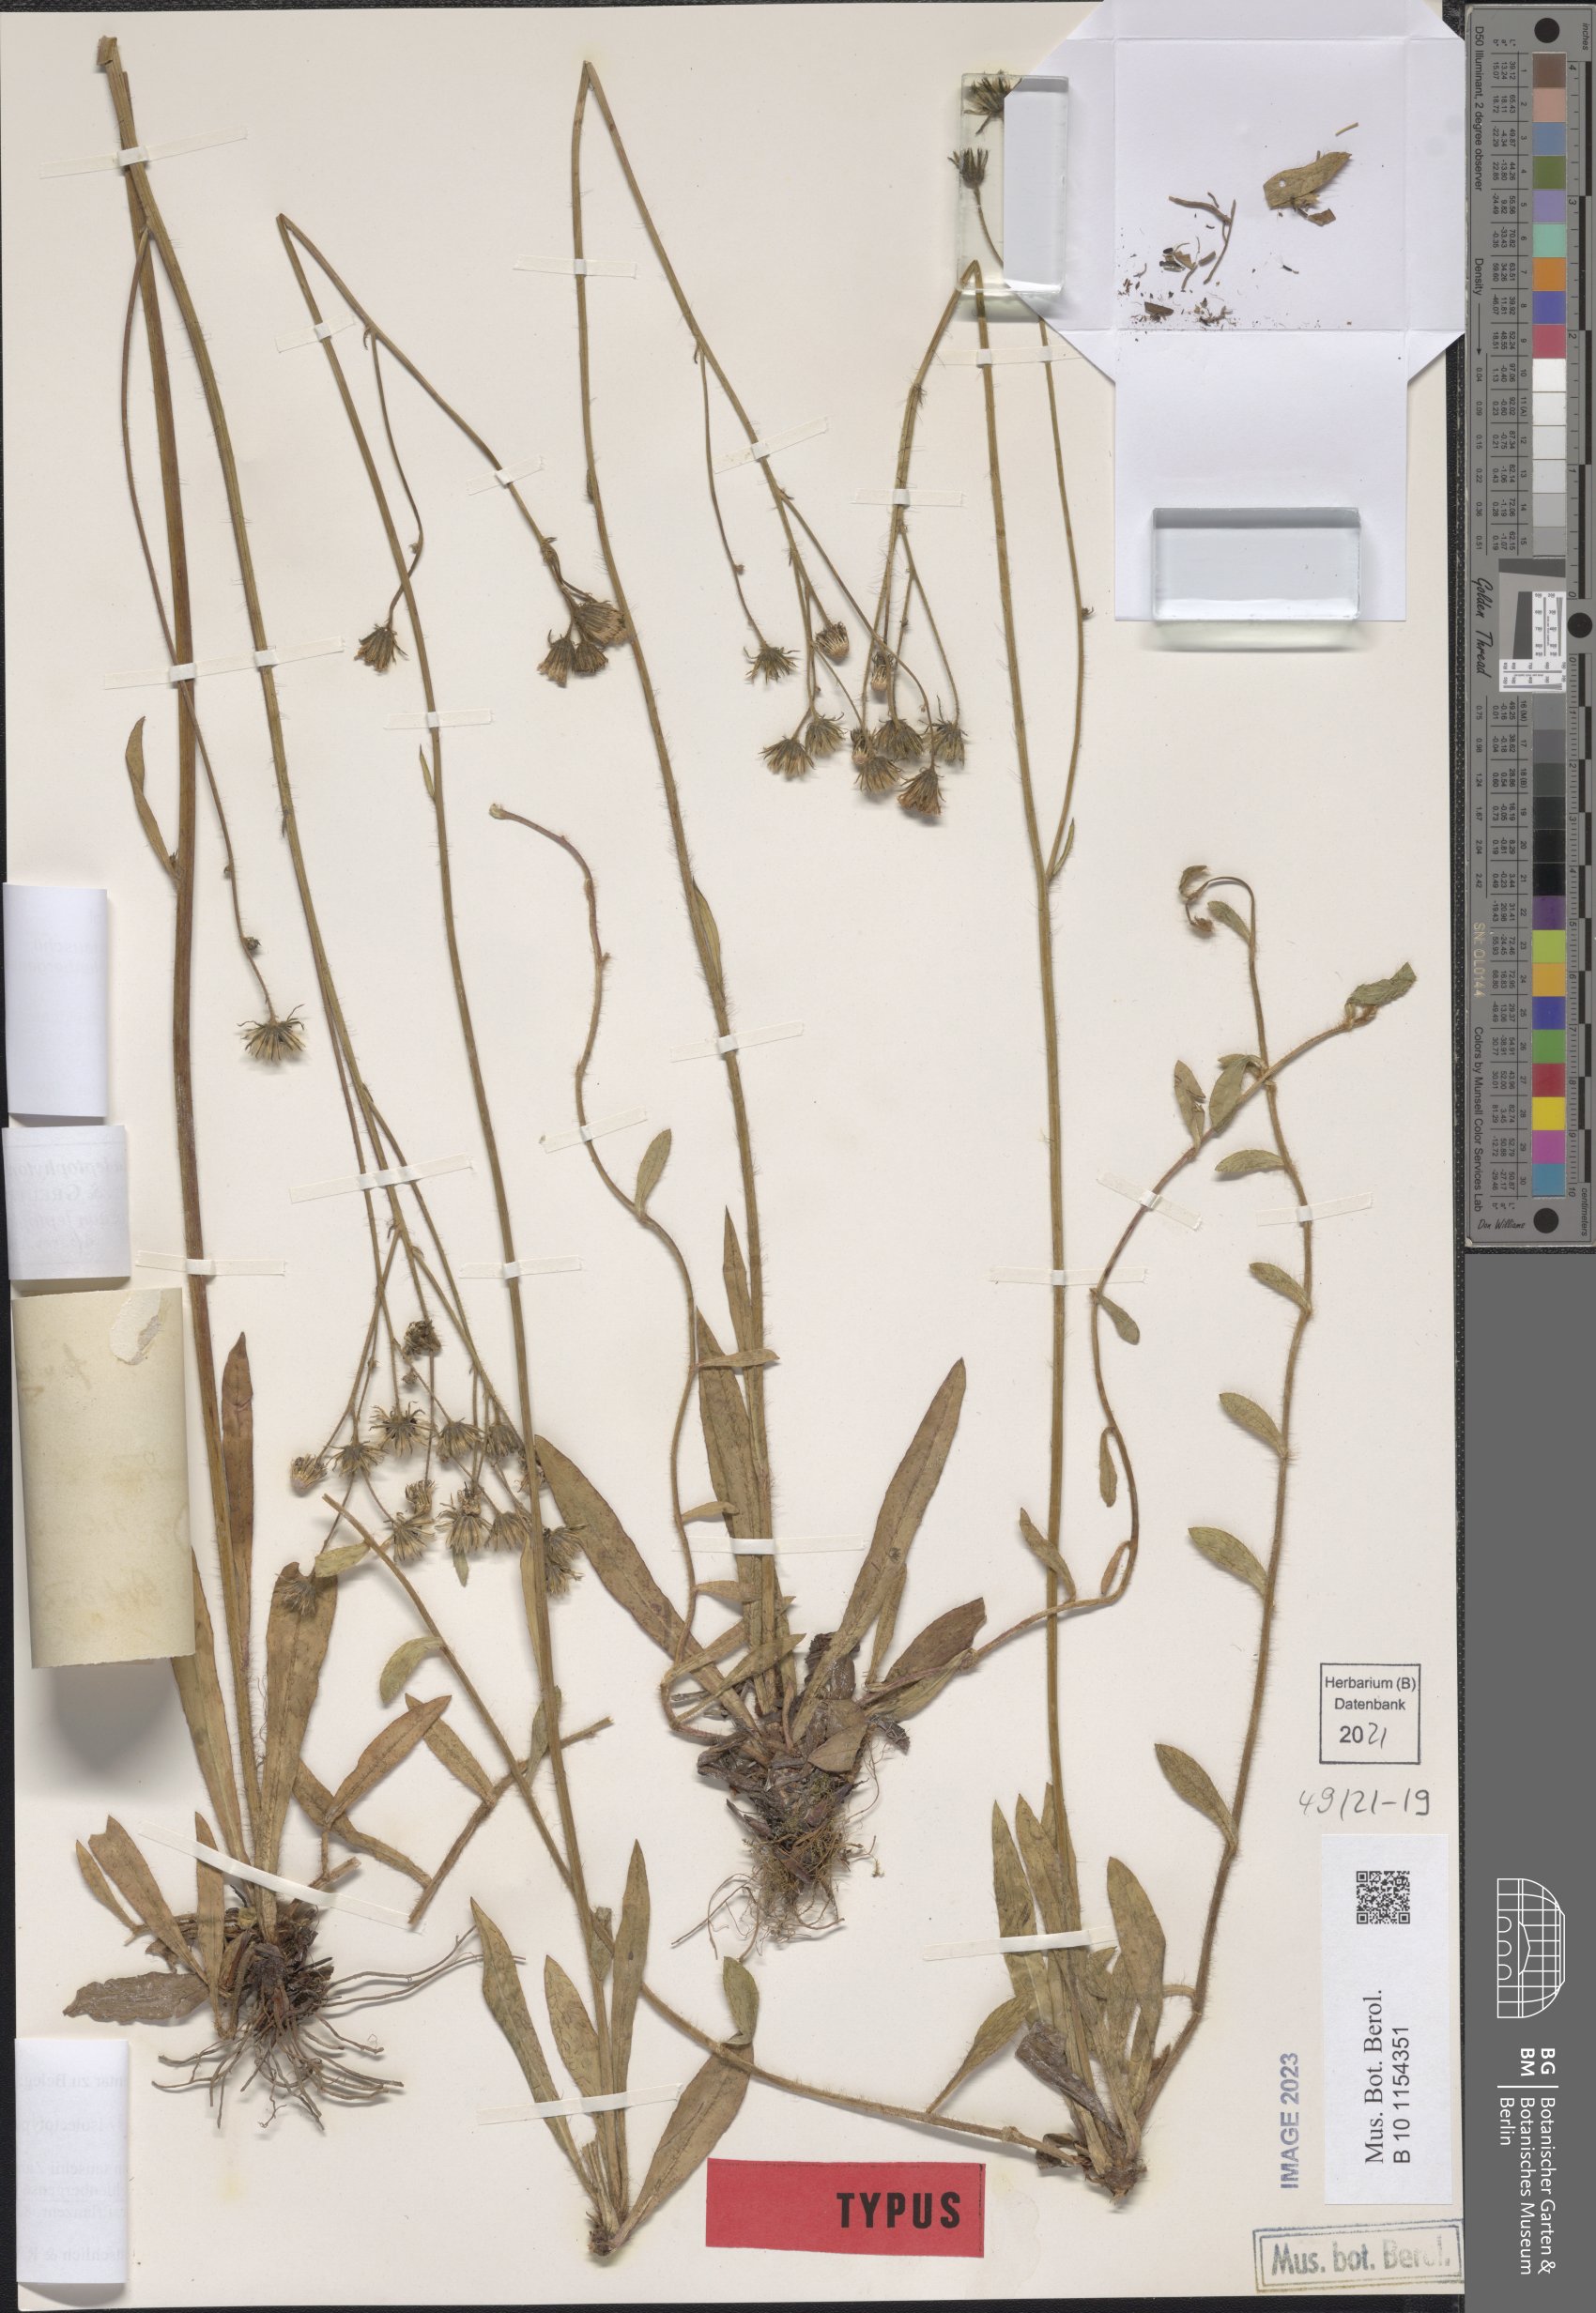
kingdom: Plantae
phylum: Tracheophyta
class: Magnoliopsida
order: Asterales
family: Asteraceae
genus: Pilosella
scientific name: Pilosella densiflora
